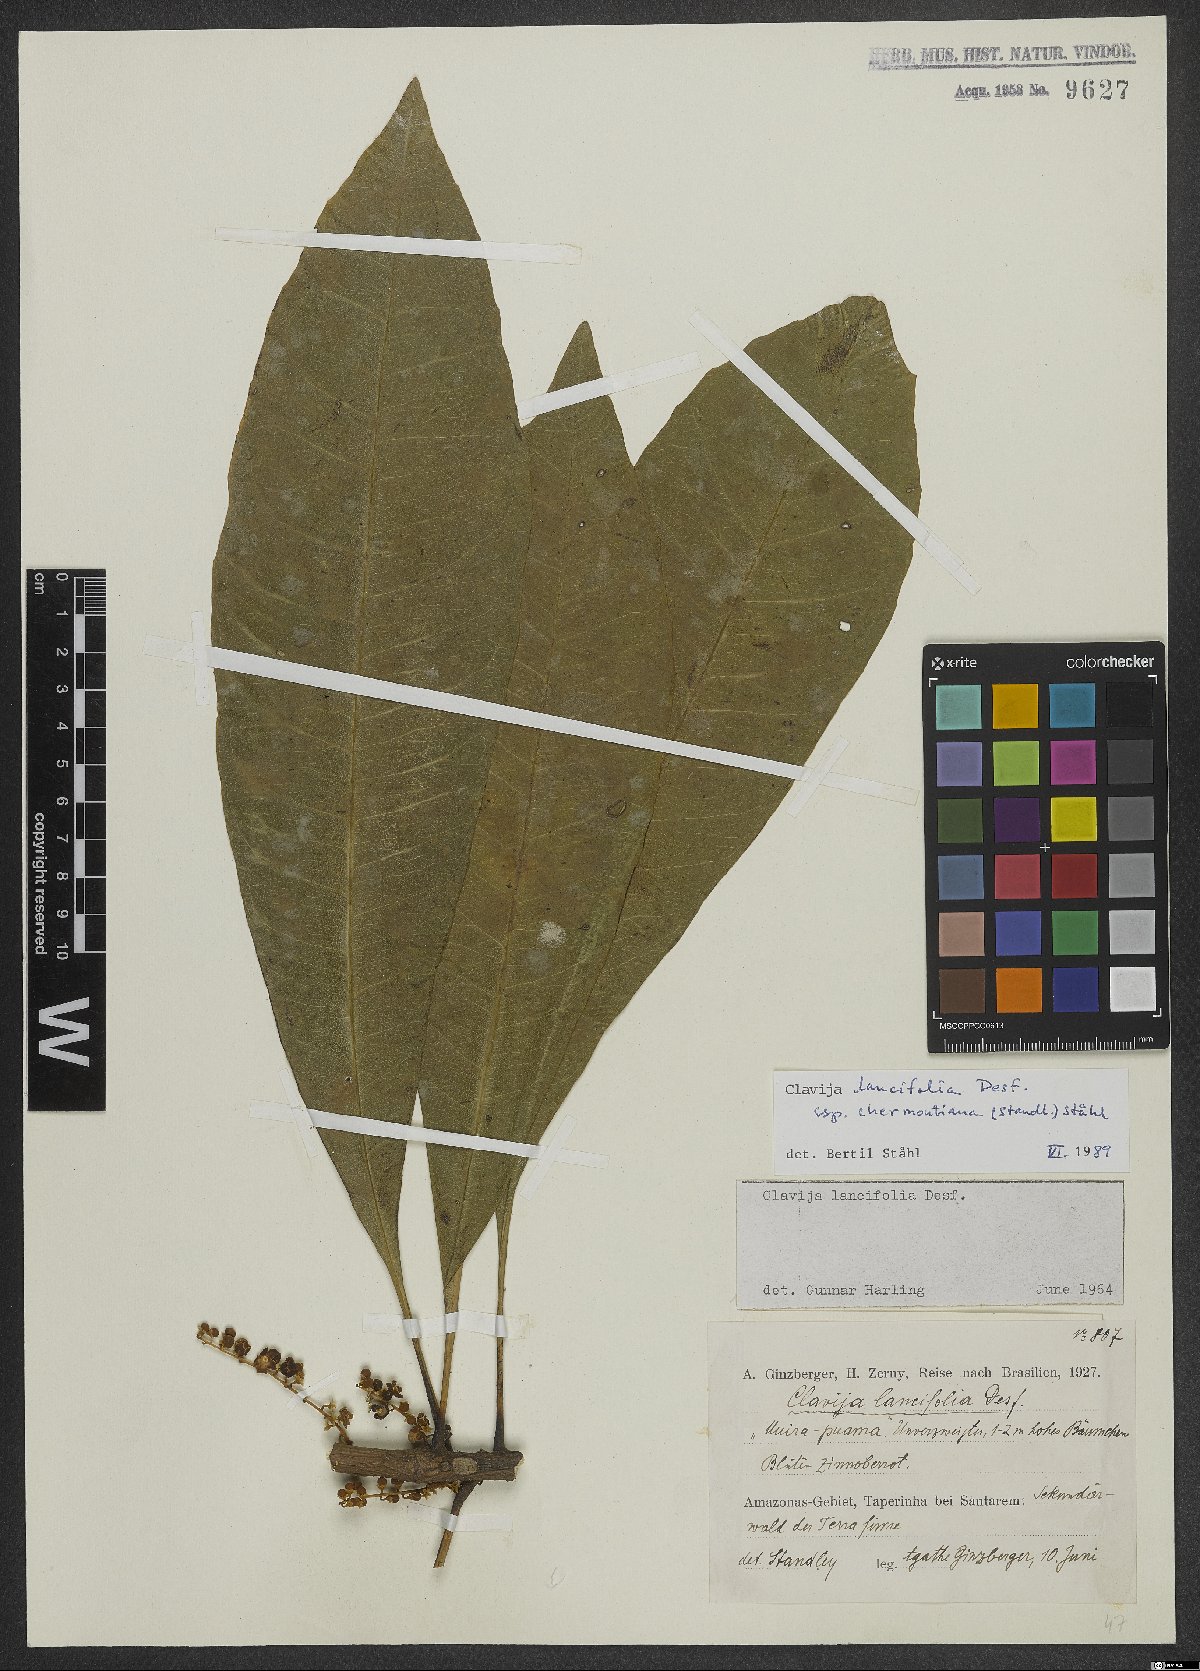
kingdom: Plantae
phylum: Tracheophyta
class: Magnoliopsida
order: Ericales
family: Primulaceae
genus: Clavija
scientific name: Clavija lancifolia
